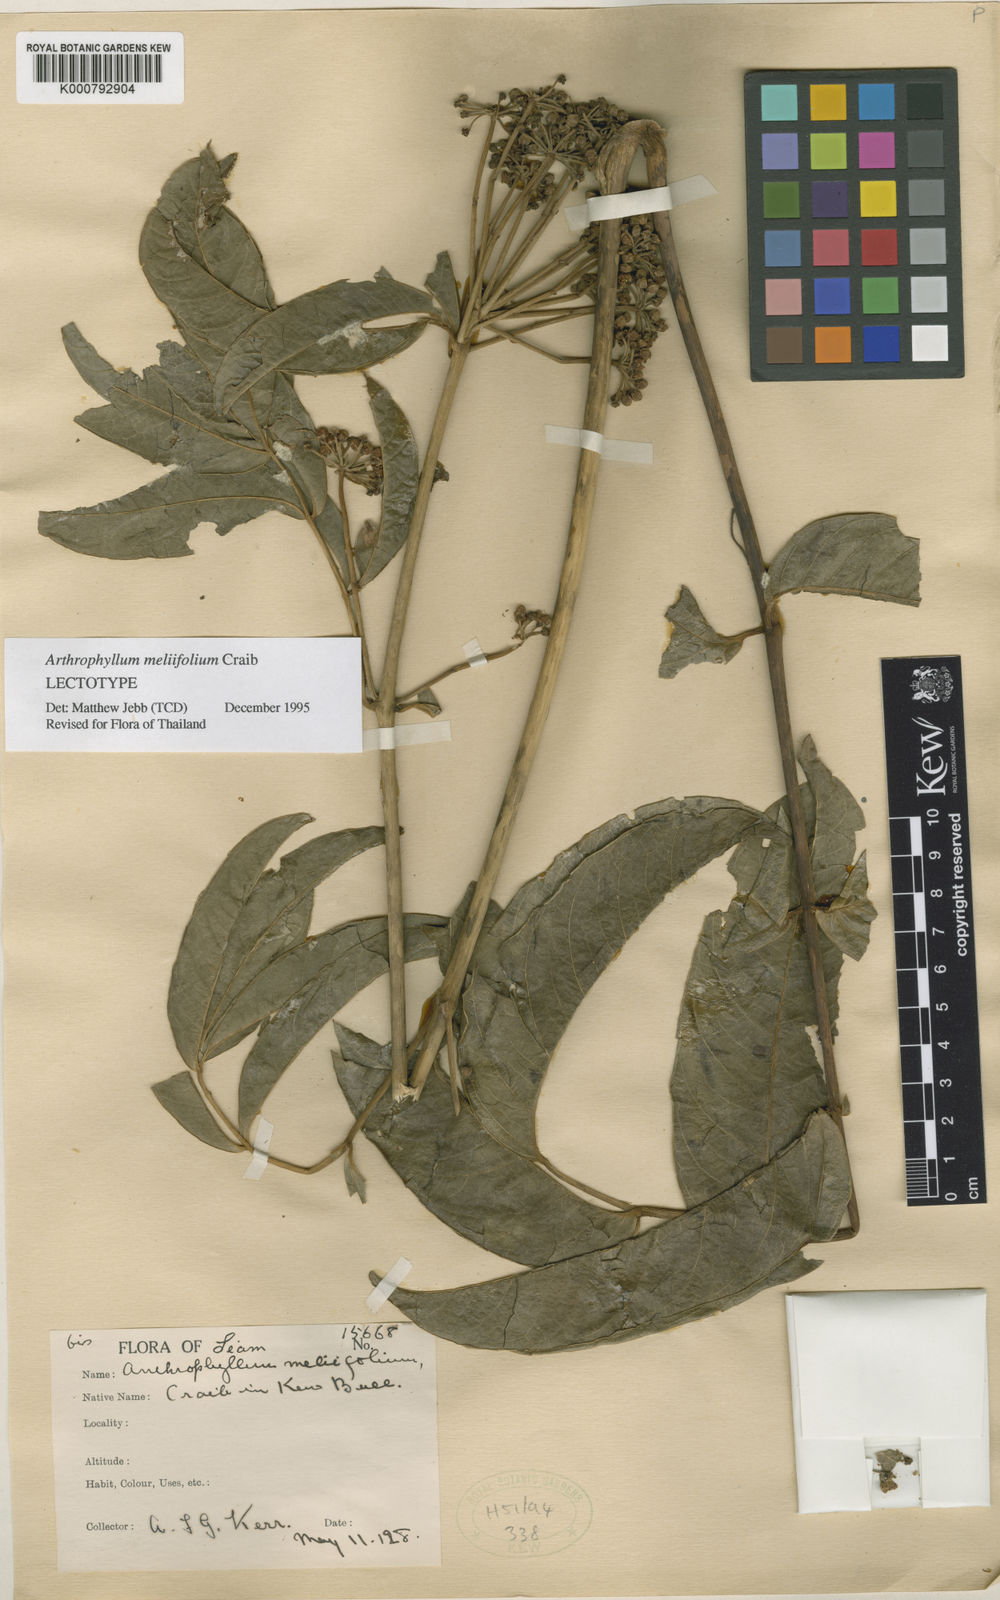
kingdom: Plantae
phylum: Tracheophyta
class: Magnoliopsida
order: Apiales
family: Araliaceae
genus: Polyscias
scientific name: Polyscias meliifolia
